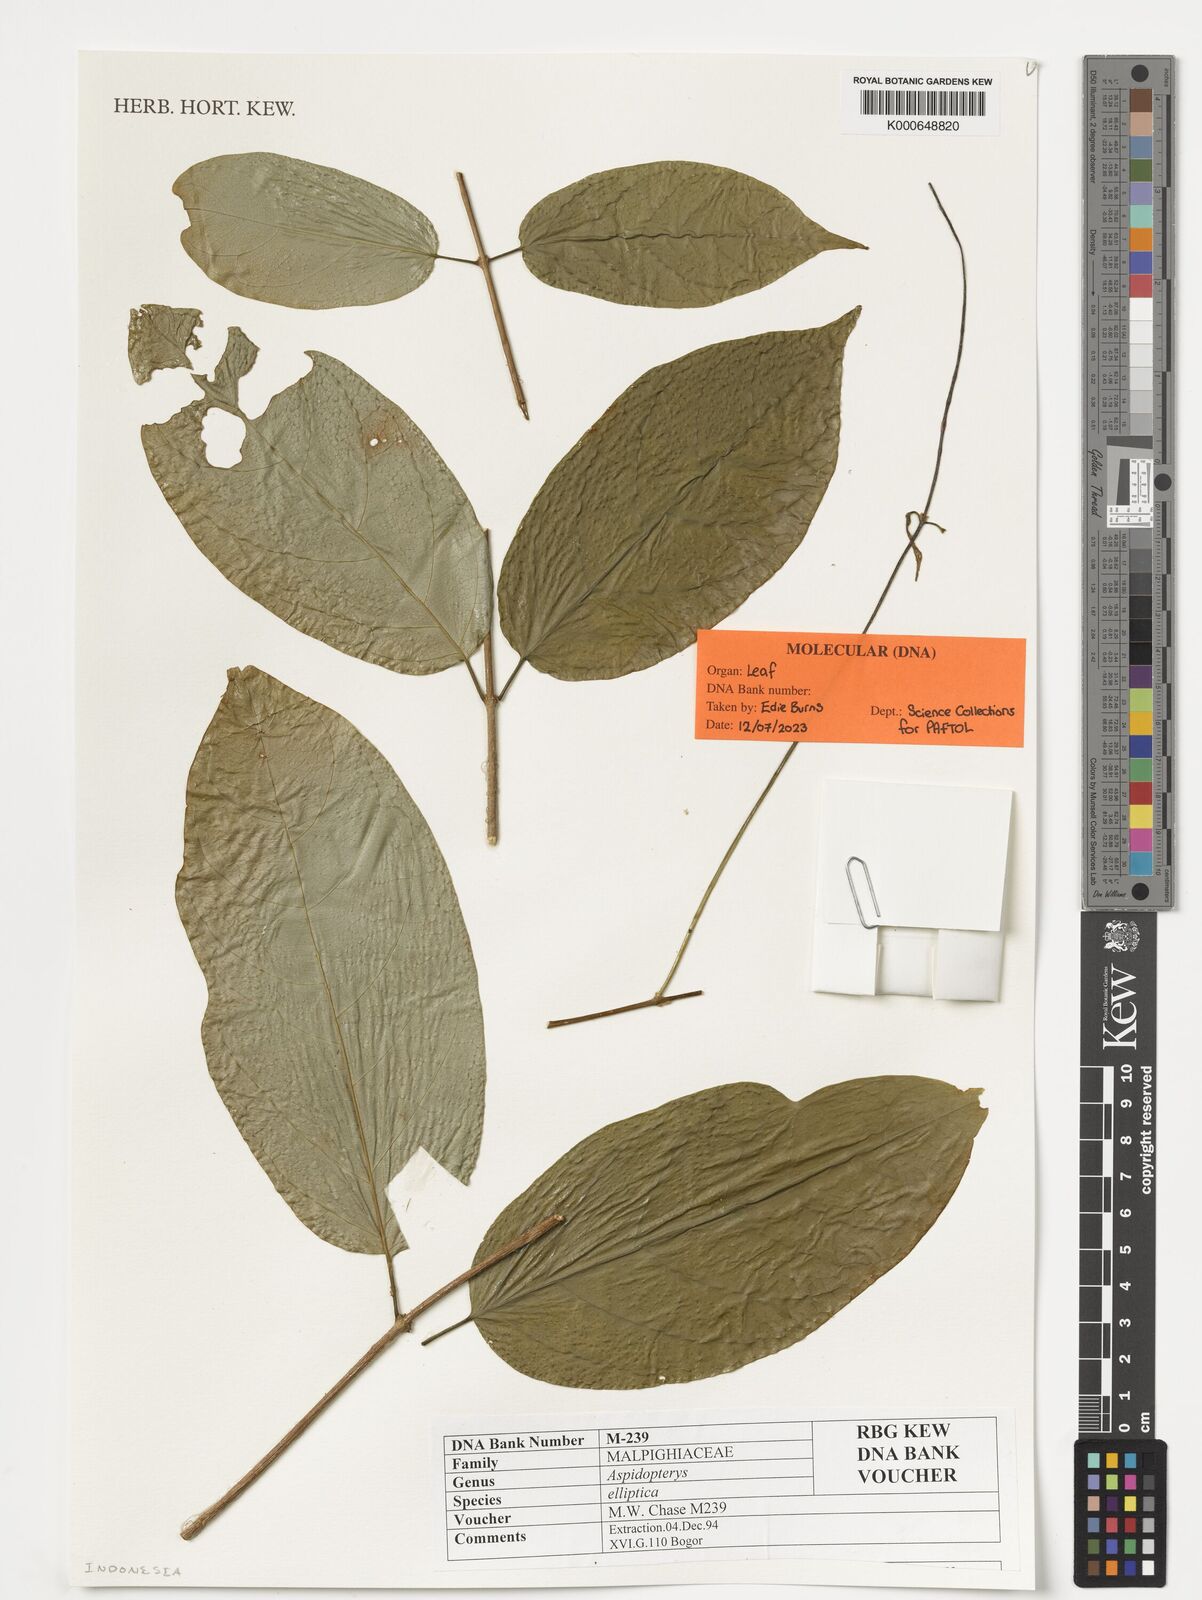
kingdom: Plantae
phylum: Tracheophyta
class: Magnoliopsida
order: Malpighiales
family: Malpighiaceae
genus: Aspidopterys
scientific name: Aspidopterys elliptica
